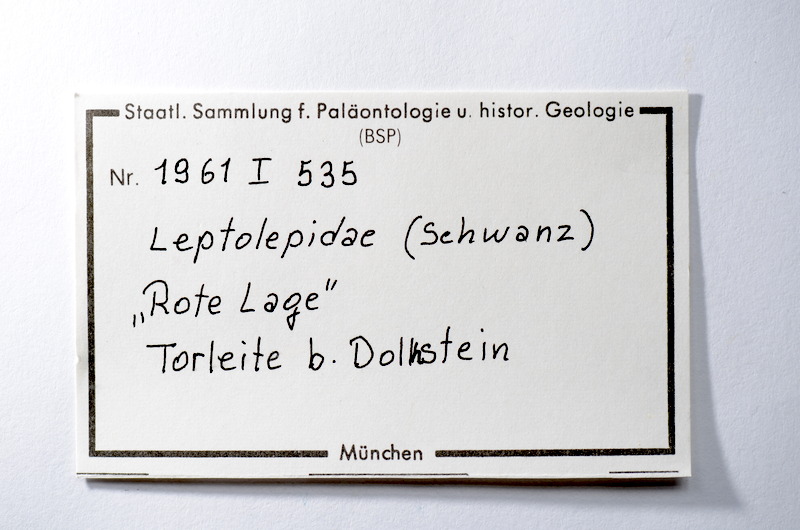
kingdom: Animalia
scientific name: Animalia
